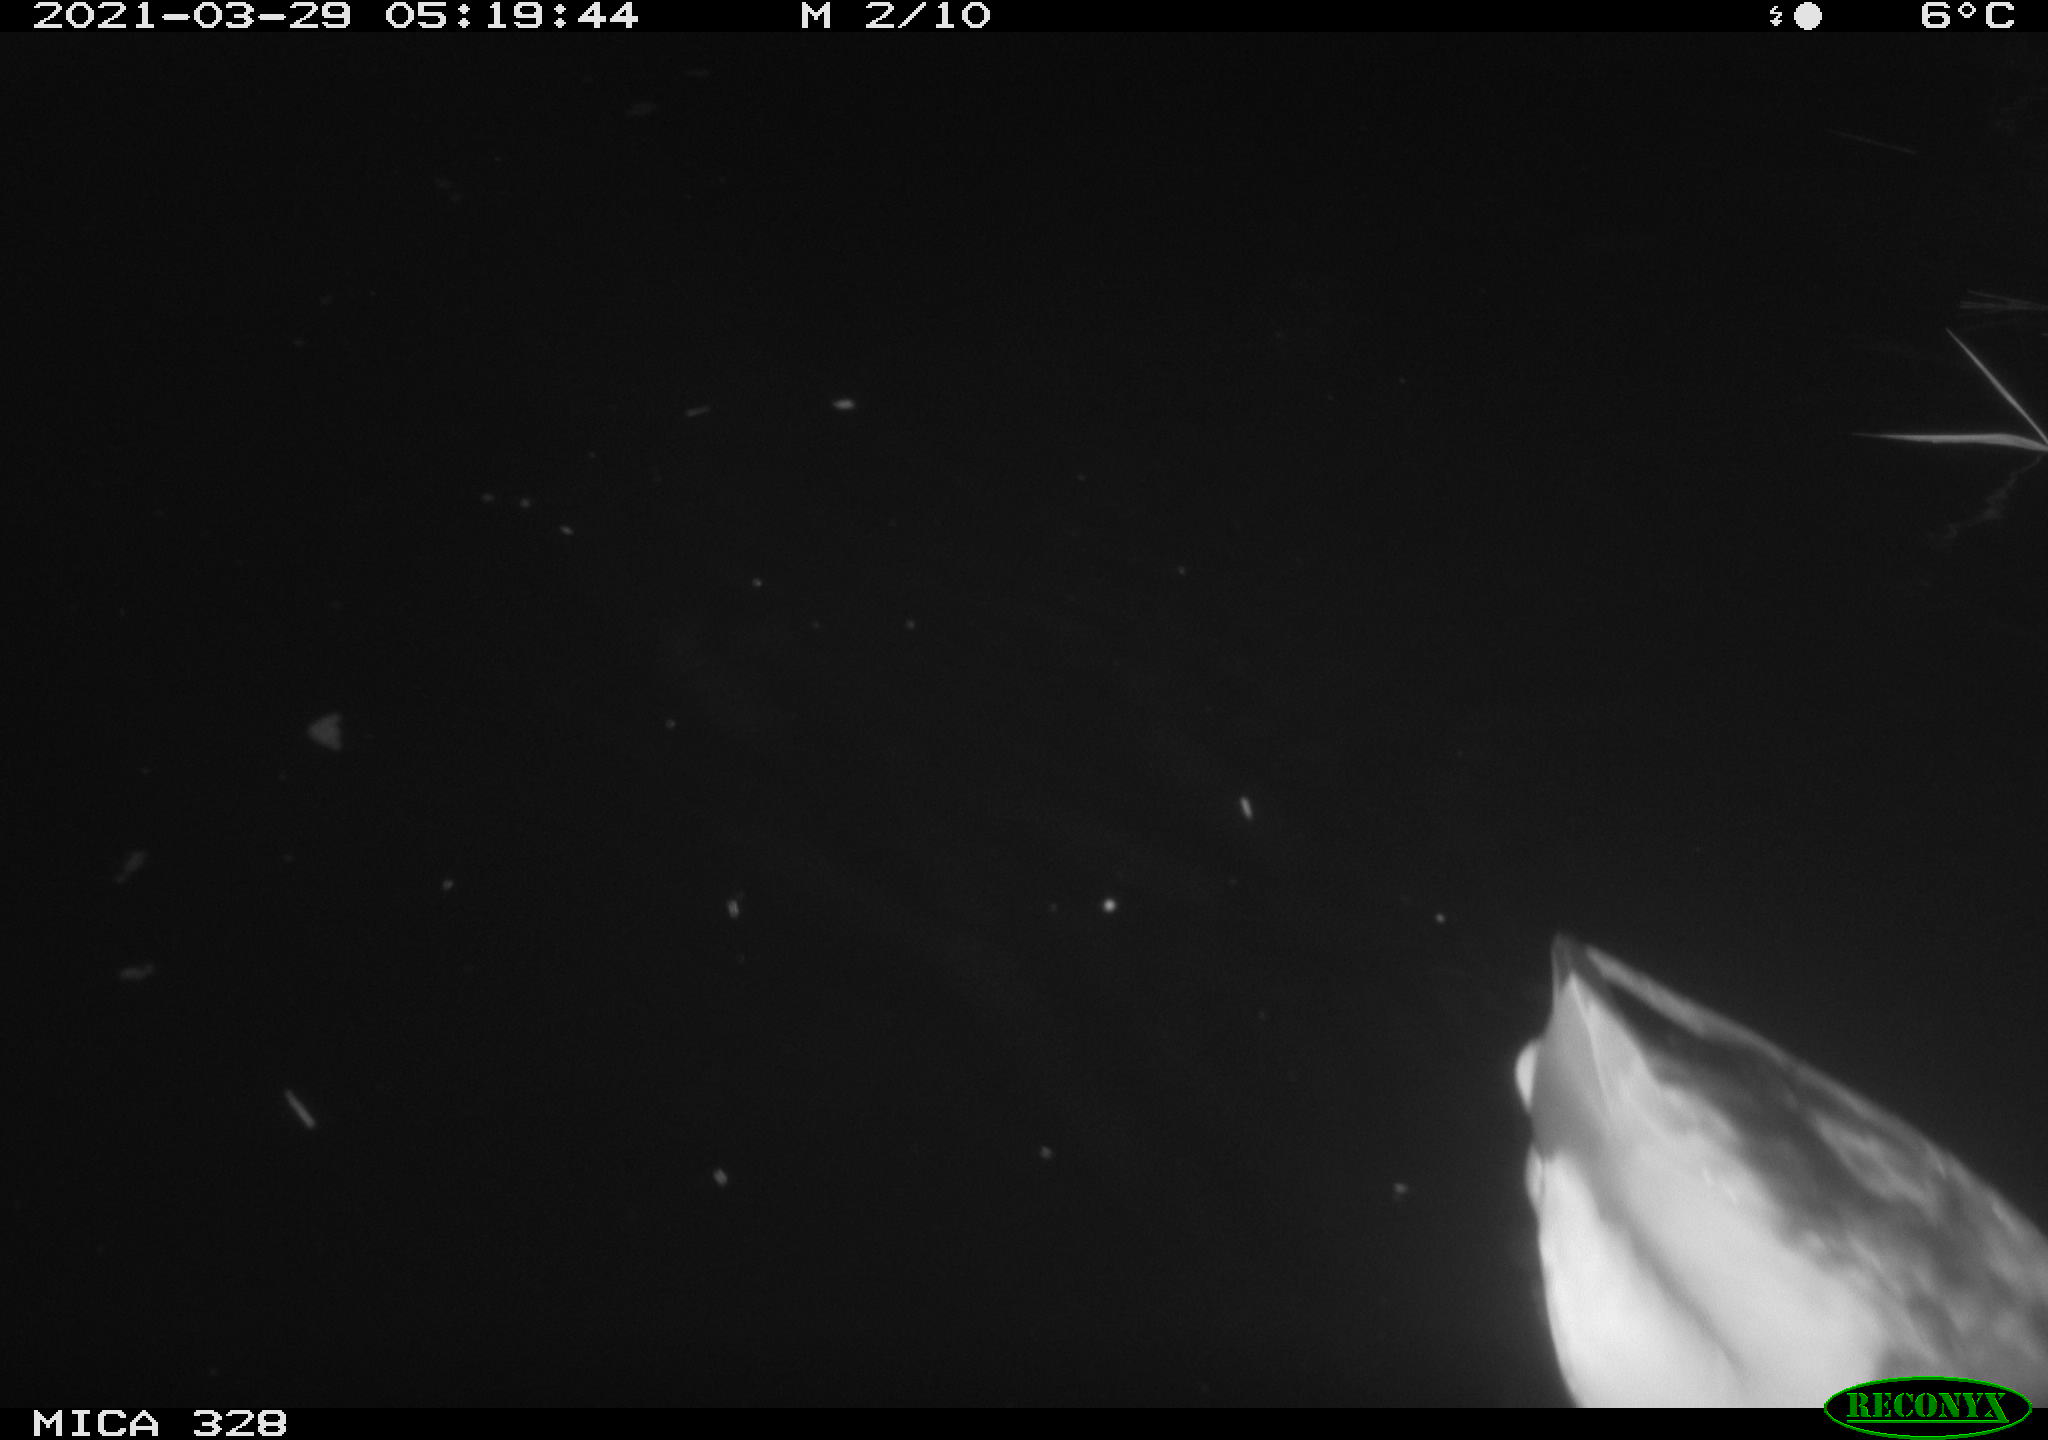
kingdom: Animalia
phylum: Chordata
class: Aves
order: Anseriformes
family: Anatidae
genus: Anas
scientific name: Anas platyrhynchos
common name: Mallard
